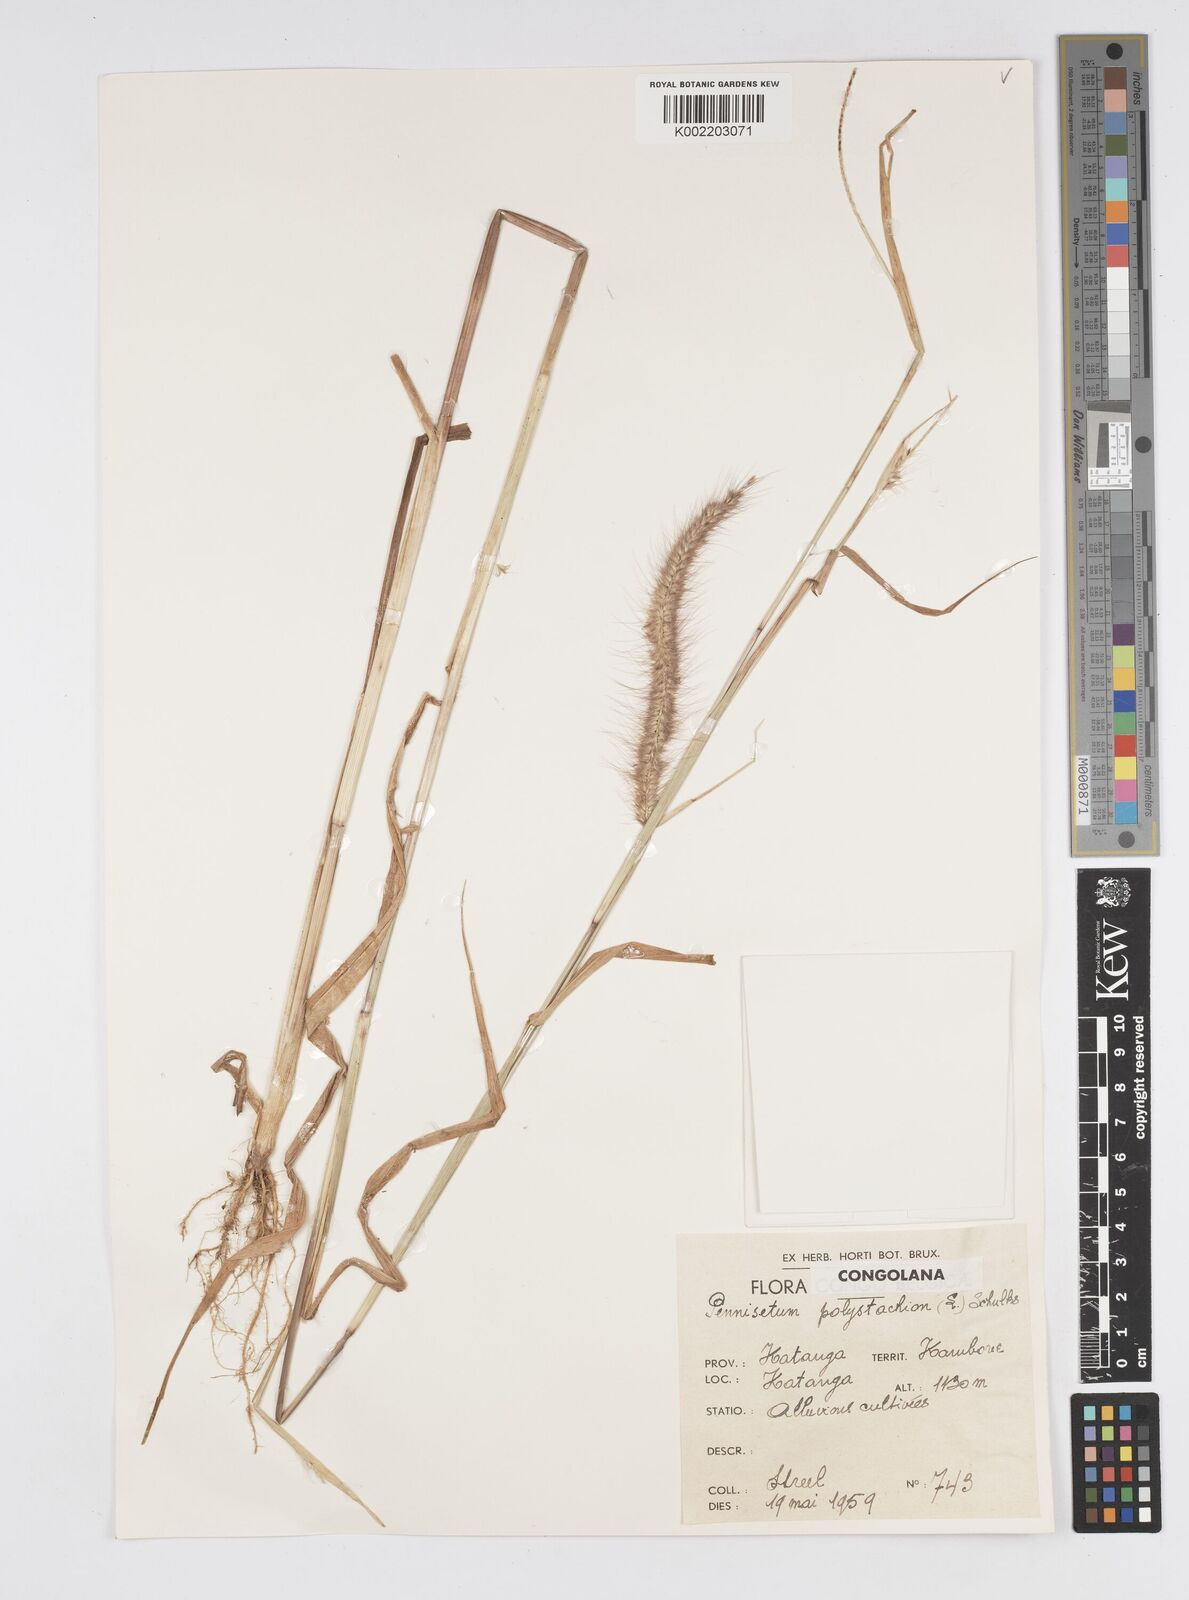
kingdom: Plantae
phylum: Tracheophyta
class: Liliopsida
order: Poales
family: Poaceae
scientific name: Poaceae
